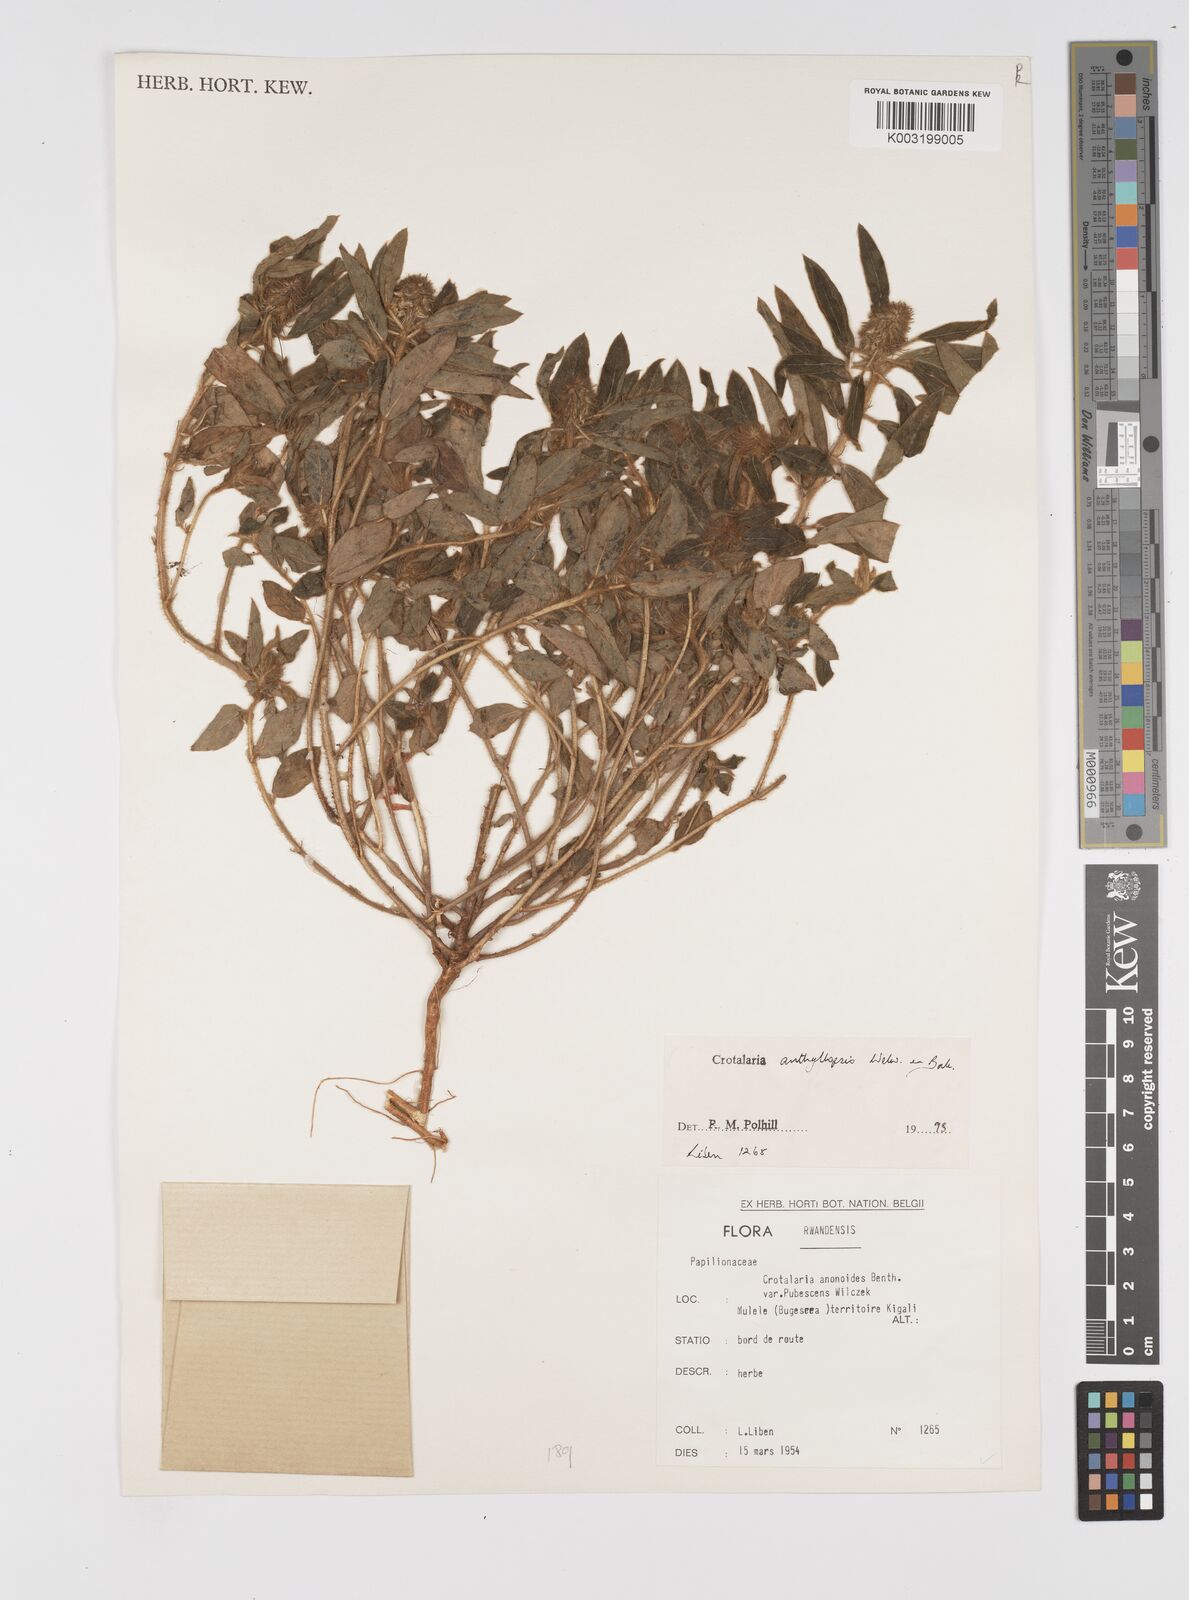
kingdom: Plantae
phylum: Tracheophyta
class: Magnoliopsida
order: Fabales
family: Fabaceae
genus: Crotalaria
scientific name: Crotalaria anthyllopsis
